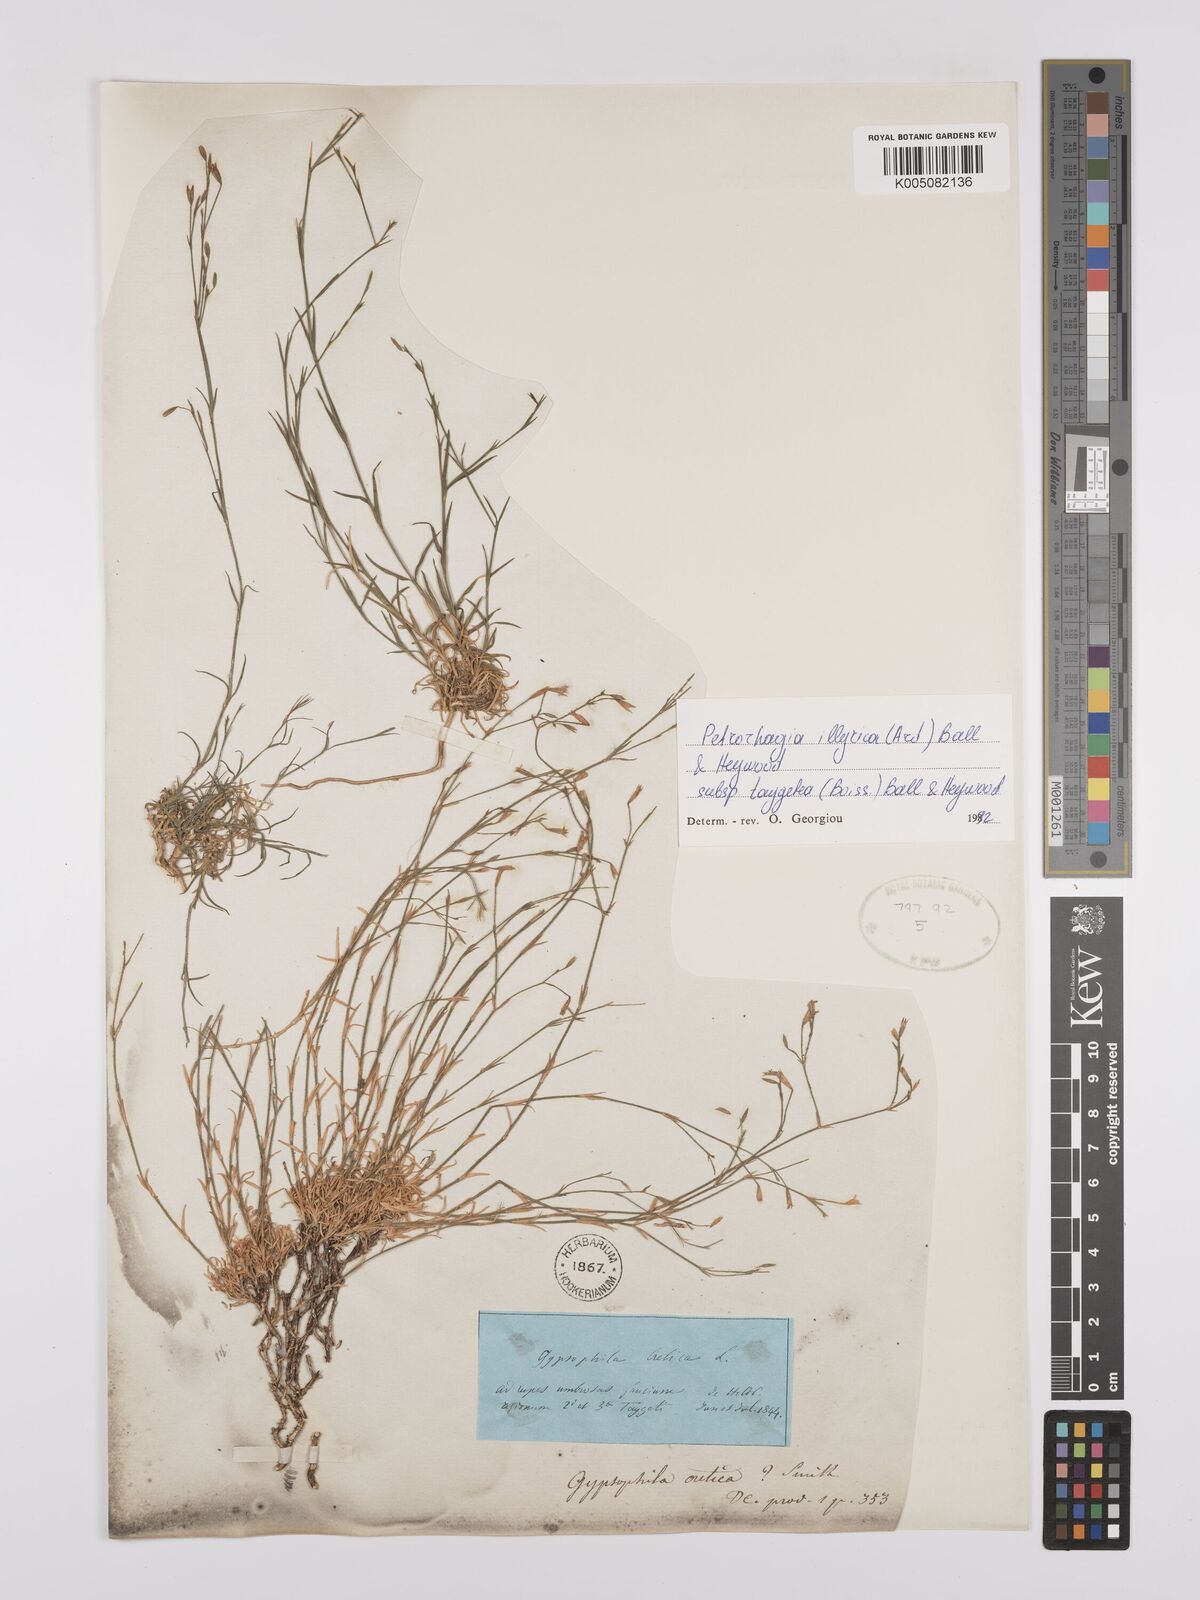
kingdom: Plantae
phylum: Tracheophyta
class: Magnoliopsida
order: Caryophyllales
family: Caryophyllaceae
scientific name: Caryophyllaceae
